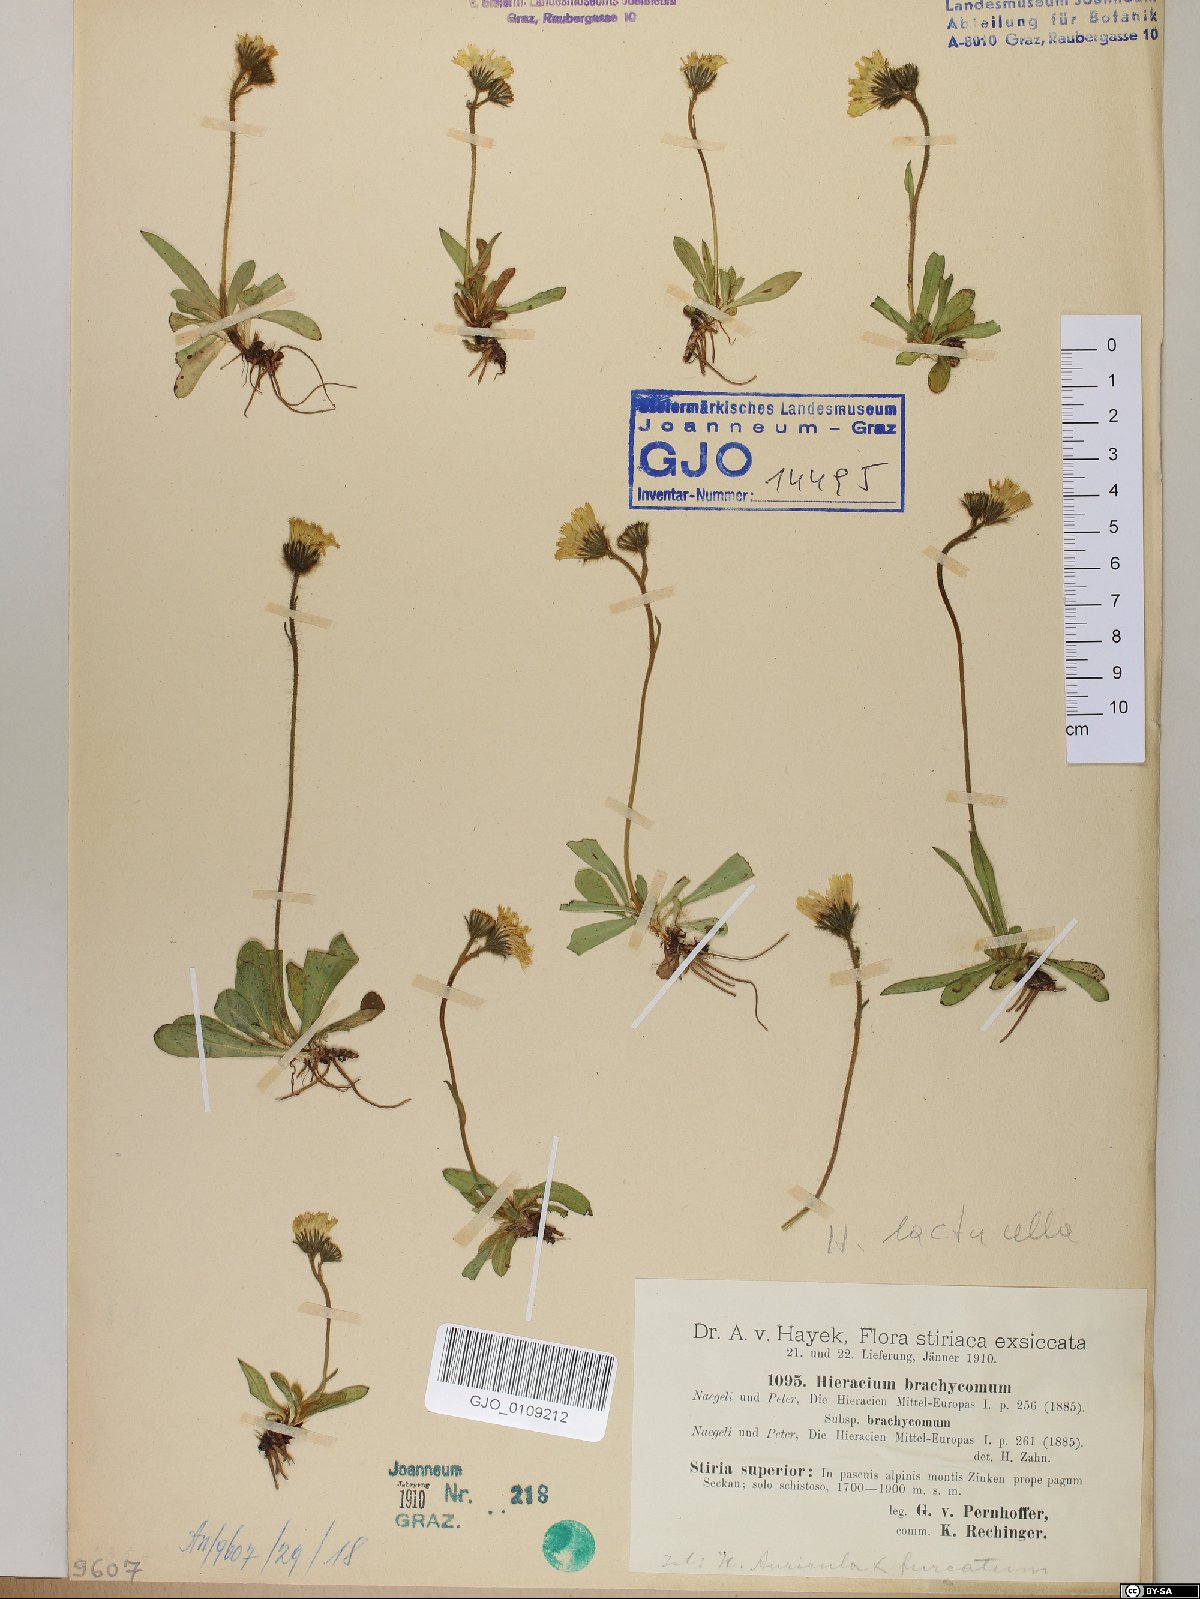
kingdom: Plantae
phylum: Tracheophyta
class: Magnoliopsida
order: Asterales
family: Asteraceae
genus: Pilosella
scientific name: Pilosella brachycoma
